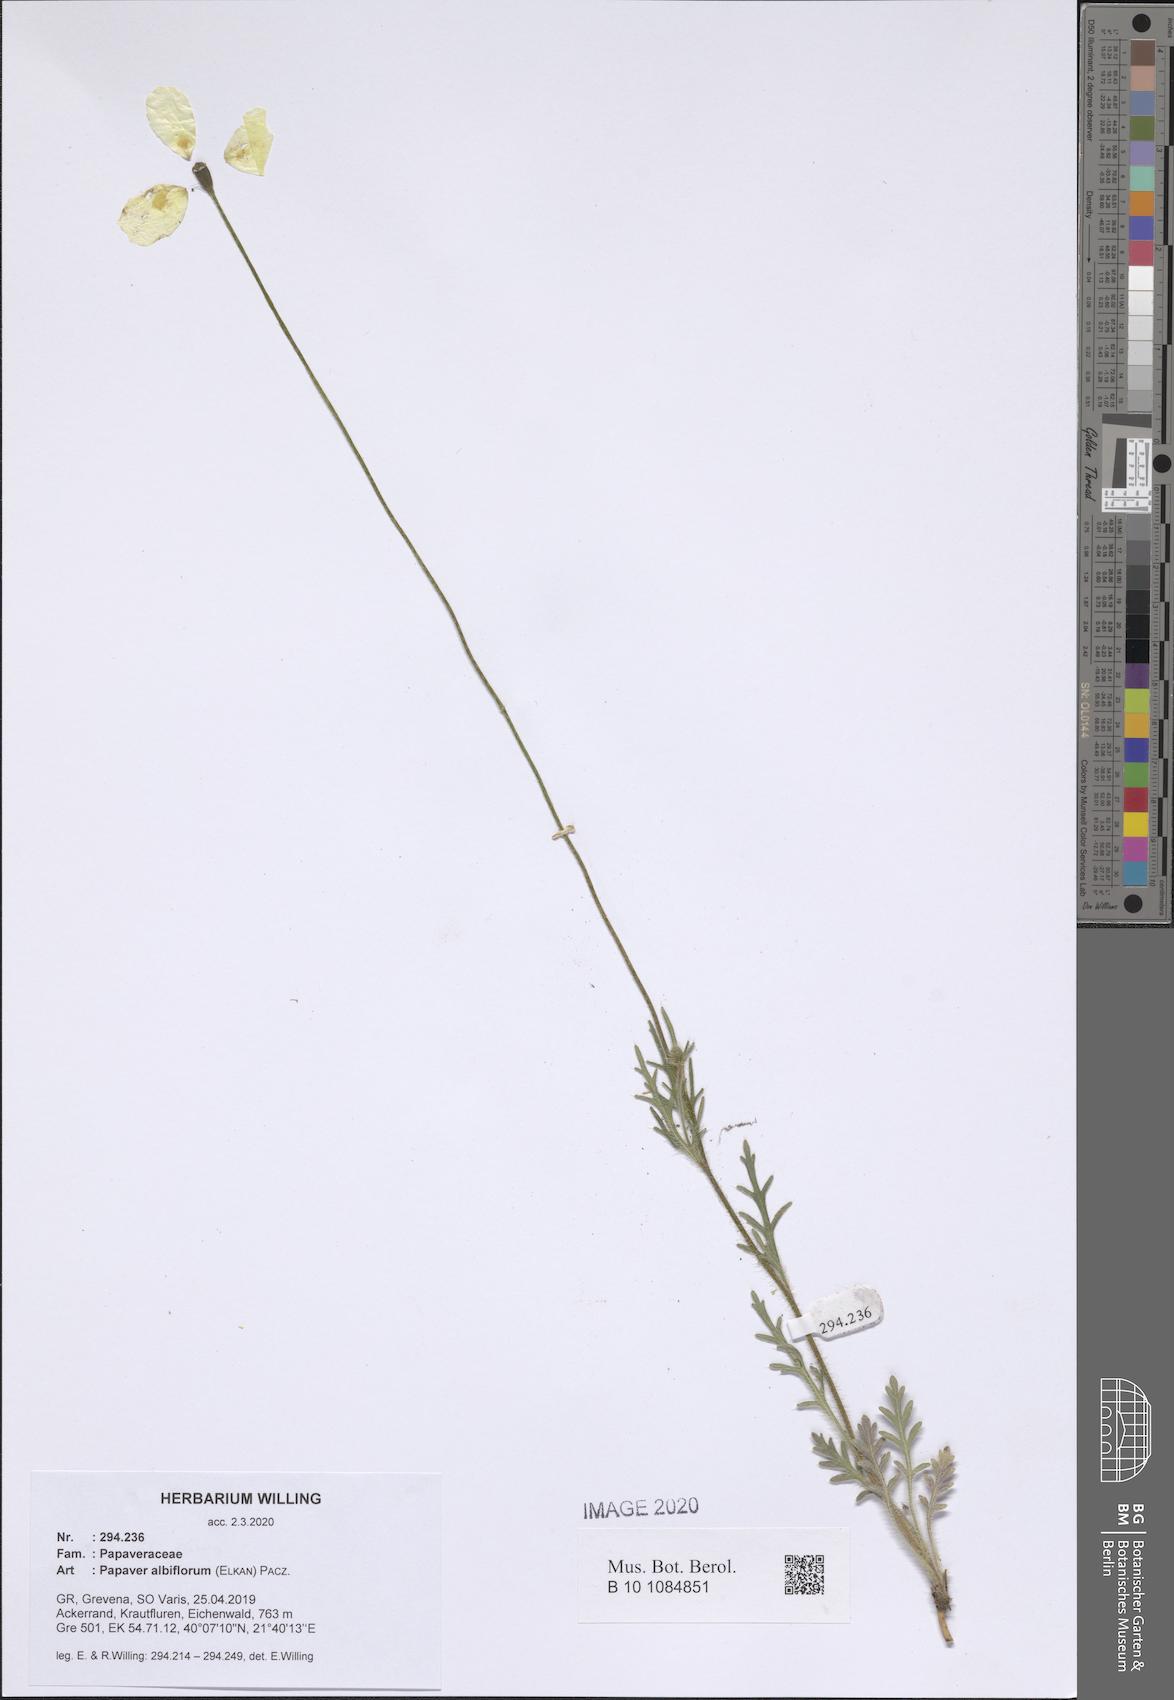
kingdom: Plantae
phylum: Tracheophyta
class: Magnoliopsida
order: Ranunculales
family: Papaveraceae
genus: Papaver
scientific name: Papaver albiflorum
